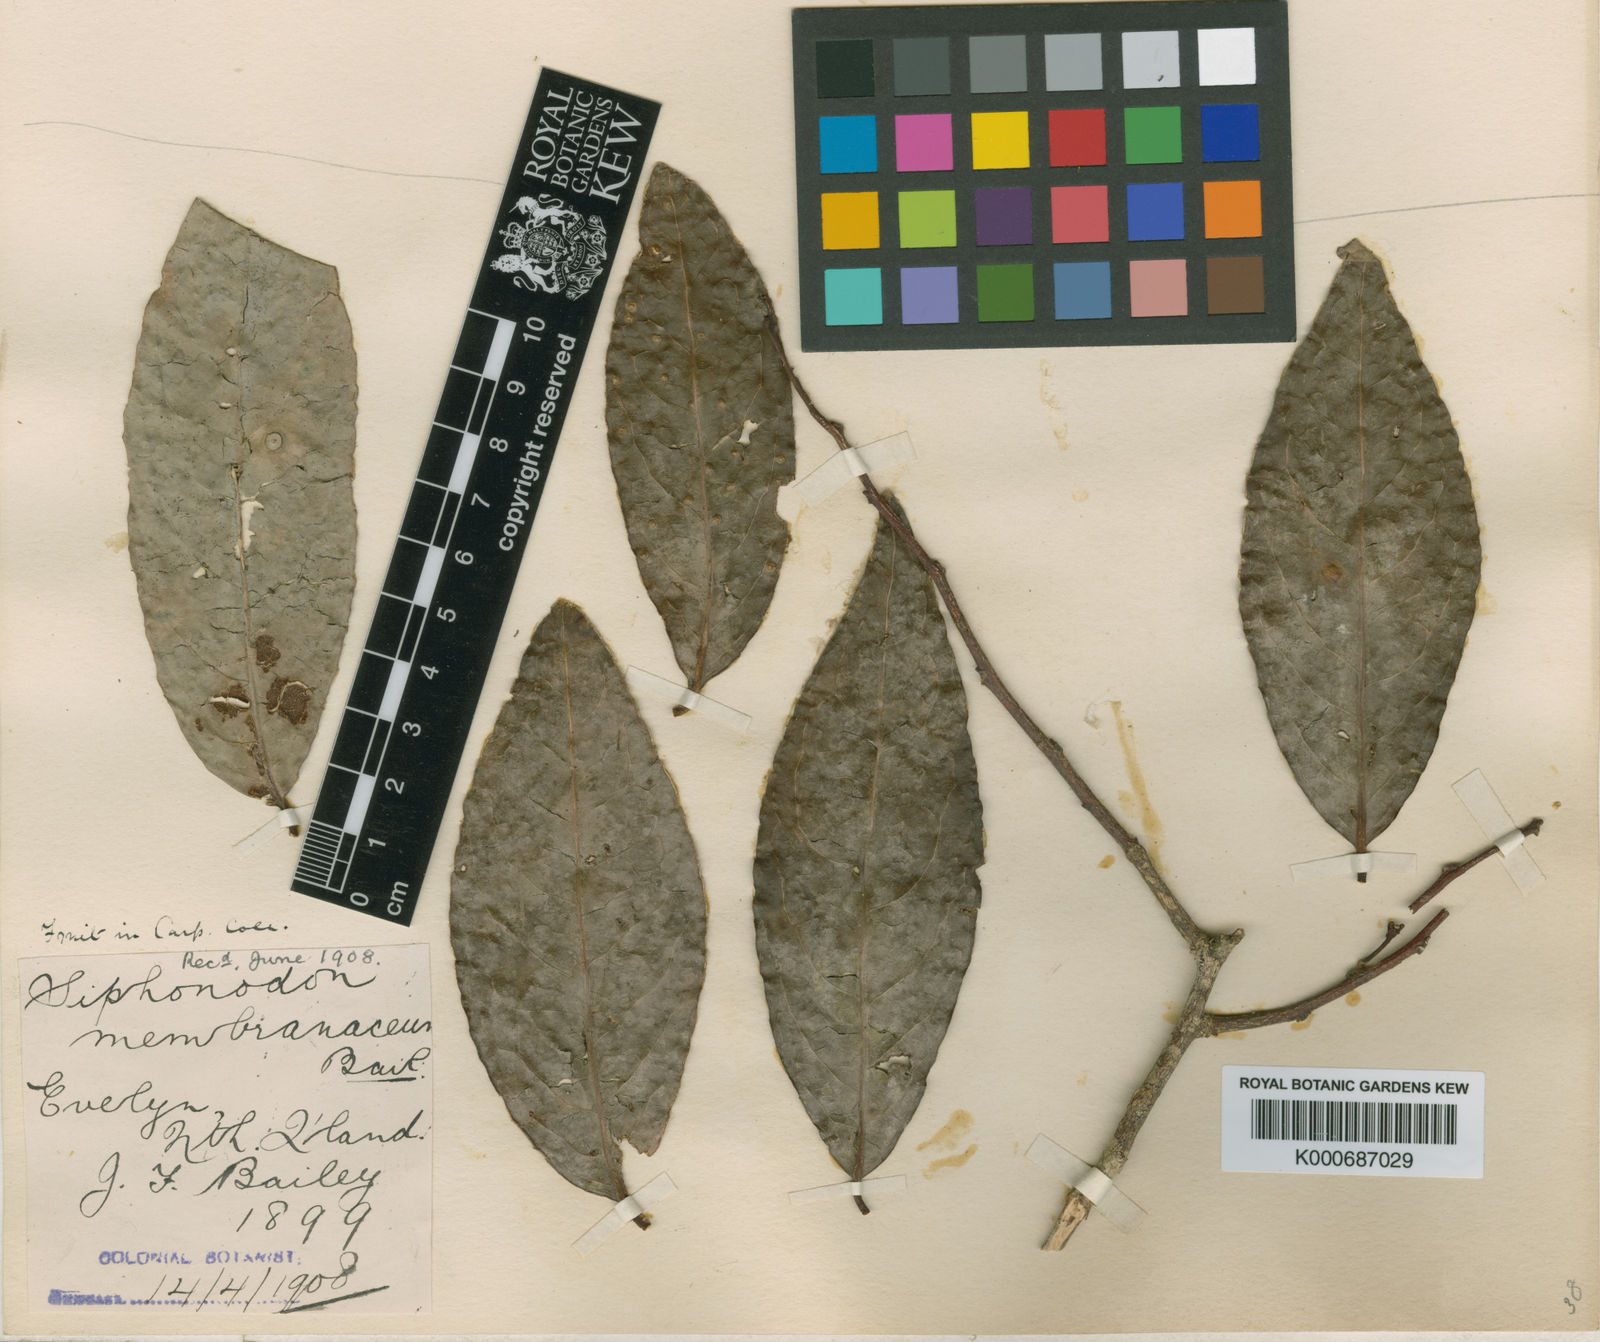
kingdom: Plantae
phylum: Tracheophyta
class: Magnoliopsida
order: Celastrales
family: Celastraceae
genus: Siphonodon
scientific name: Siphonodon membranaceus
